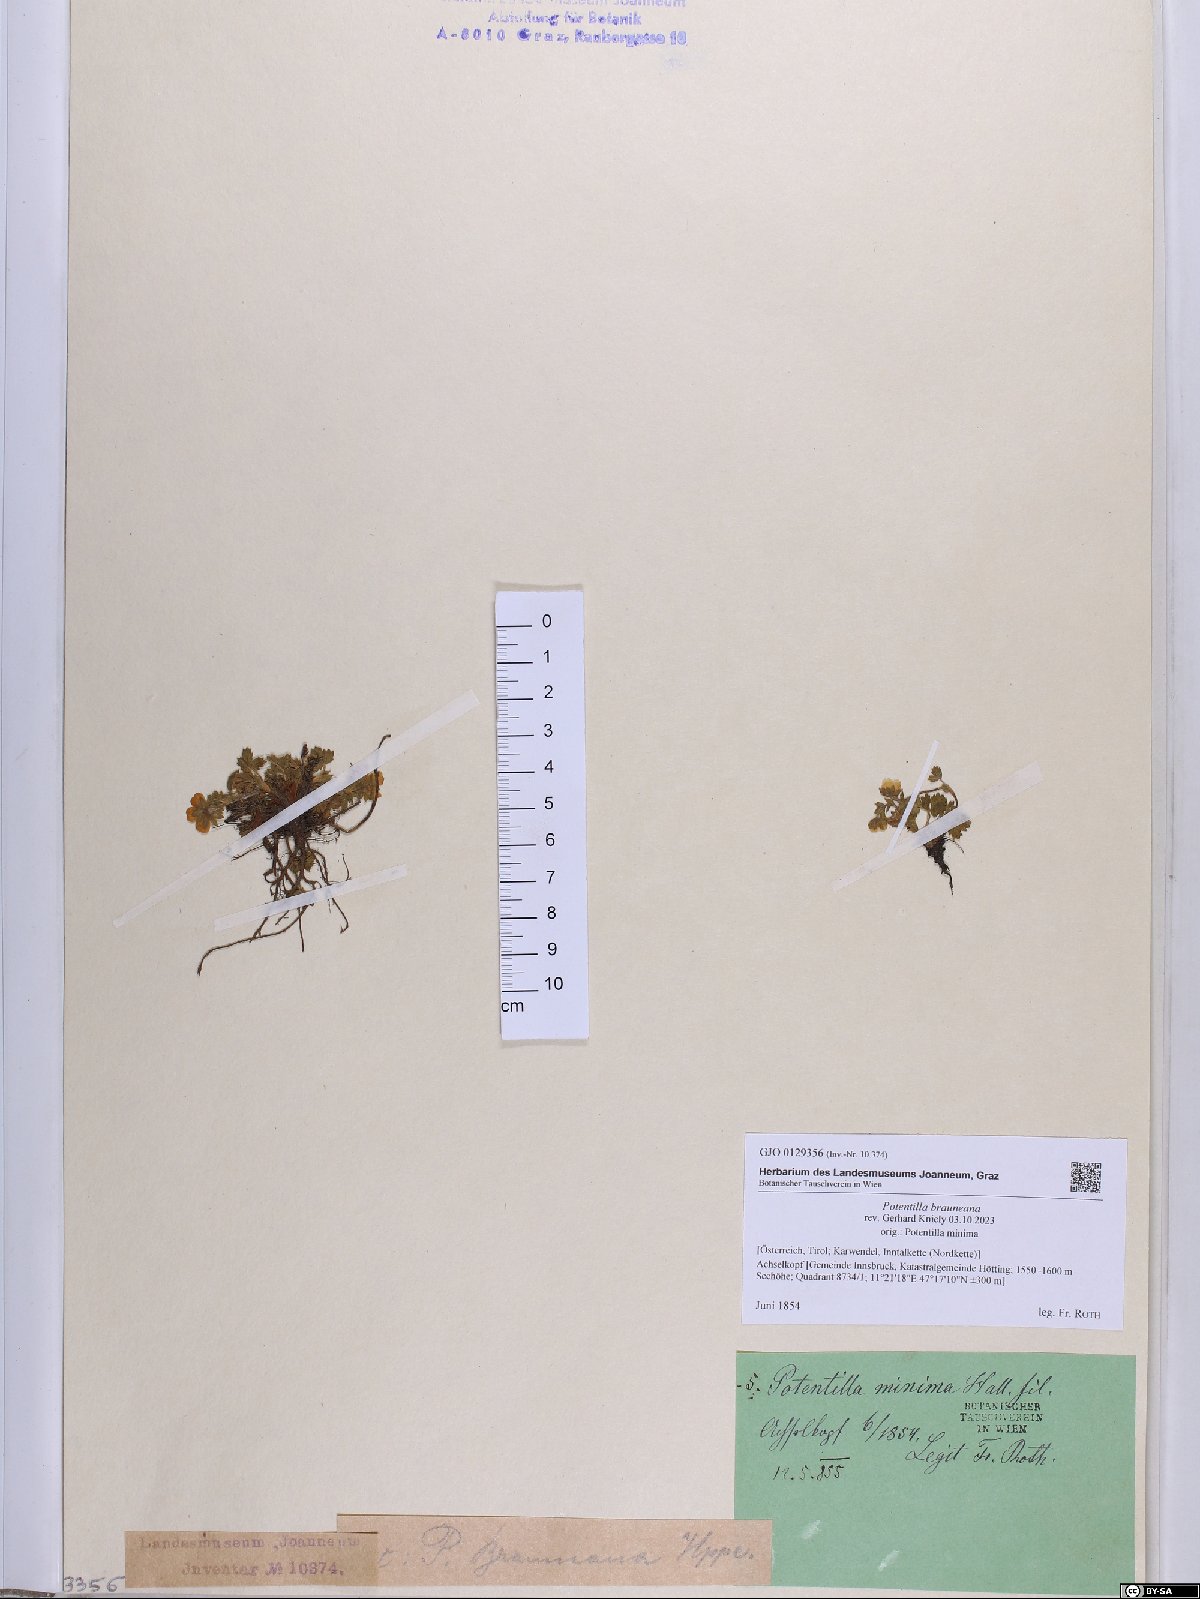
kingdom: Plantae
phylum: Tracheophyta
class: Magnoliopsida
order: Rosales
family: Rosaceae
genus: Potentilla
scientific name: Potentilla brauneana
